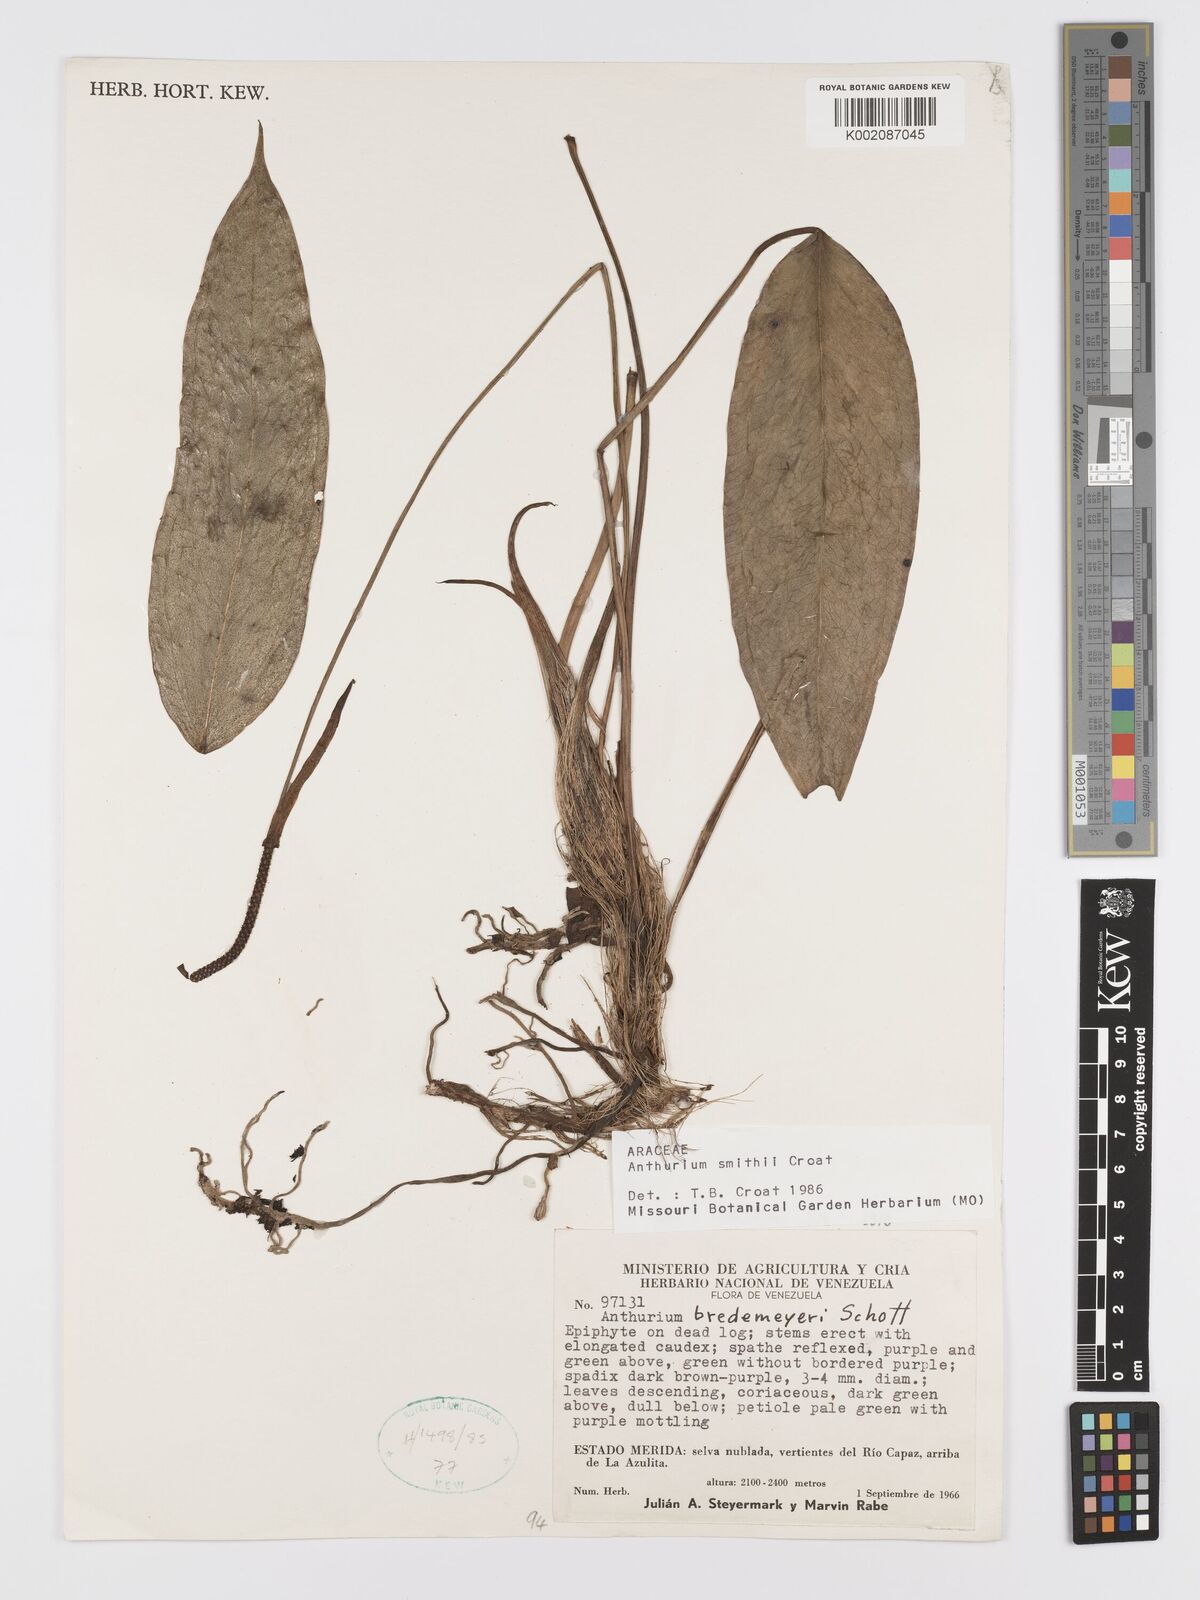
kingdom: Plantae
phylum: Tracheophyta
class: Liliopsida
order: Alismatales
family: Araceae
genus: Anthurium
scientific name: Anthurium smithii
